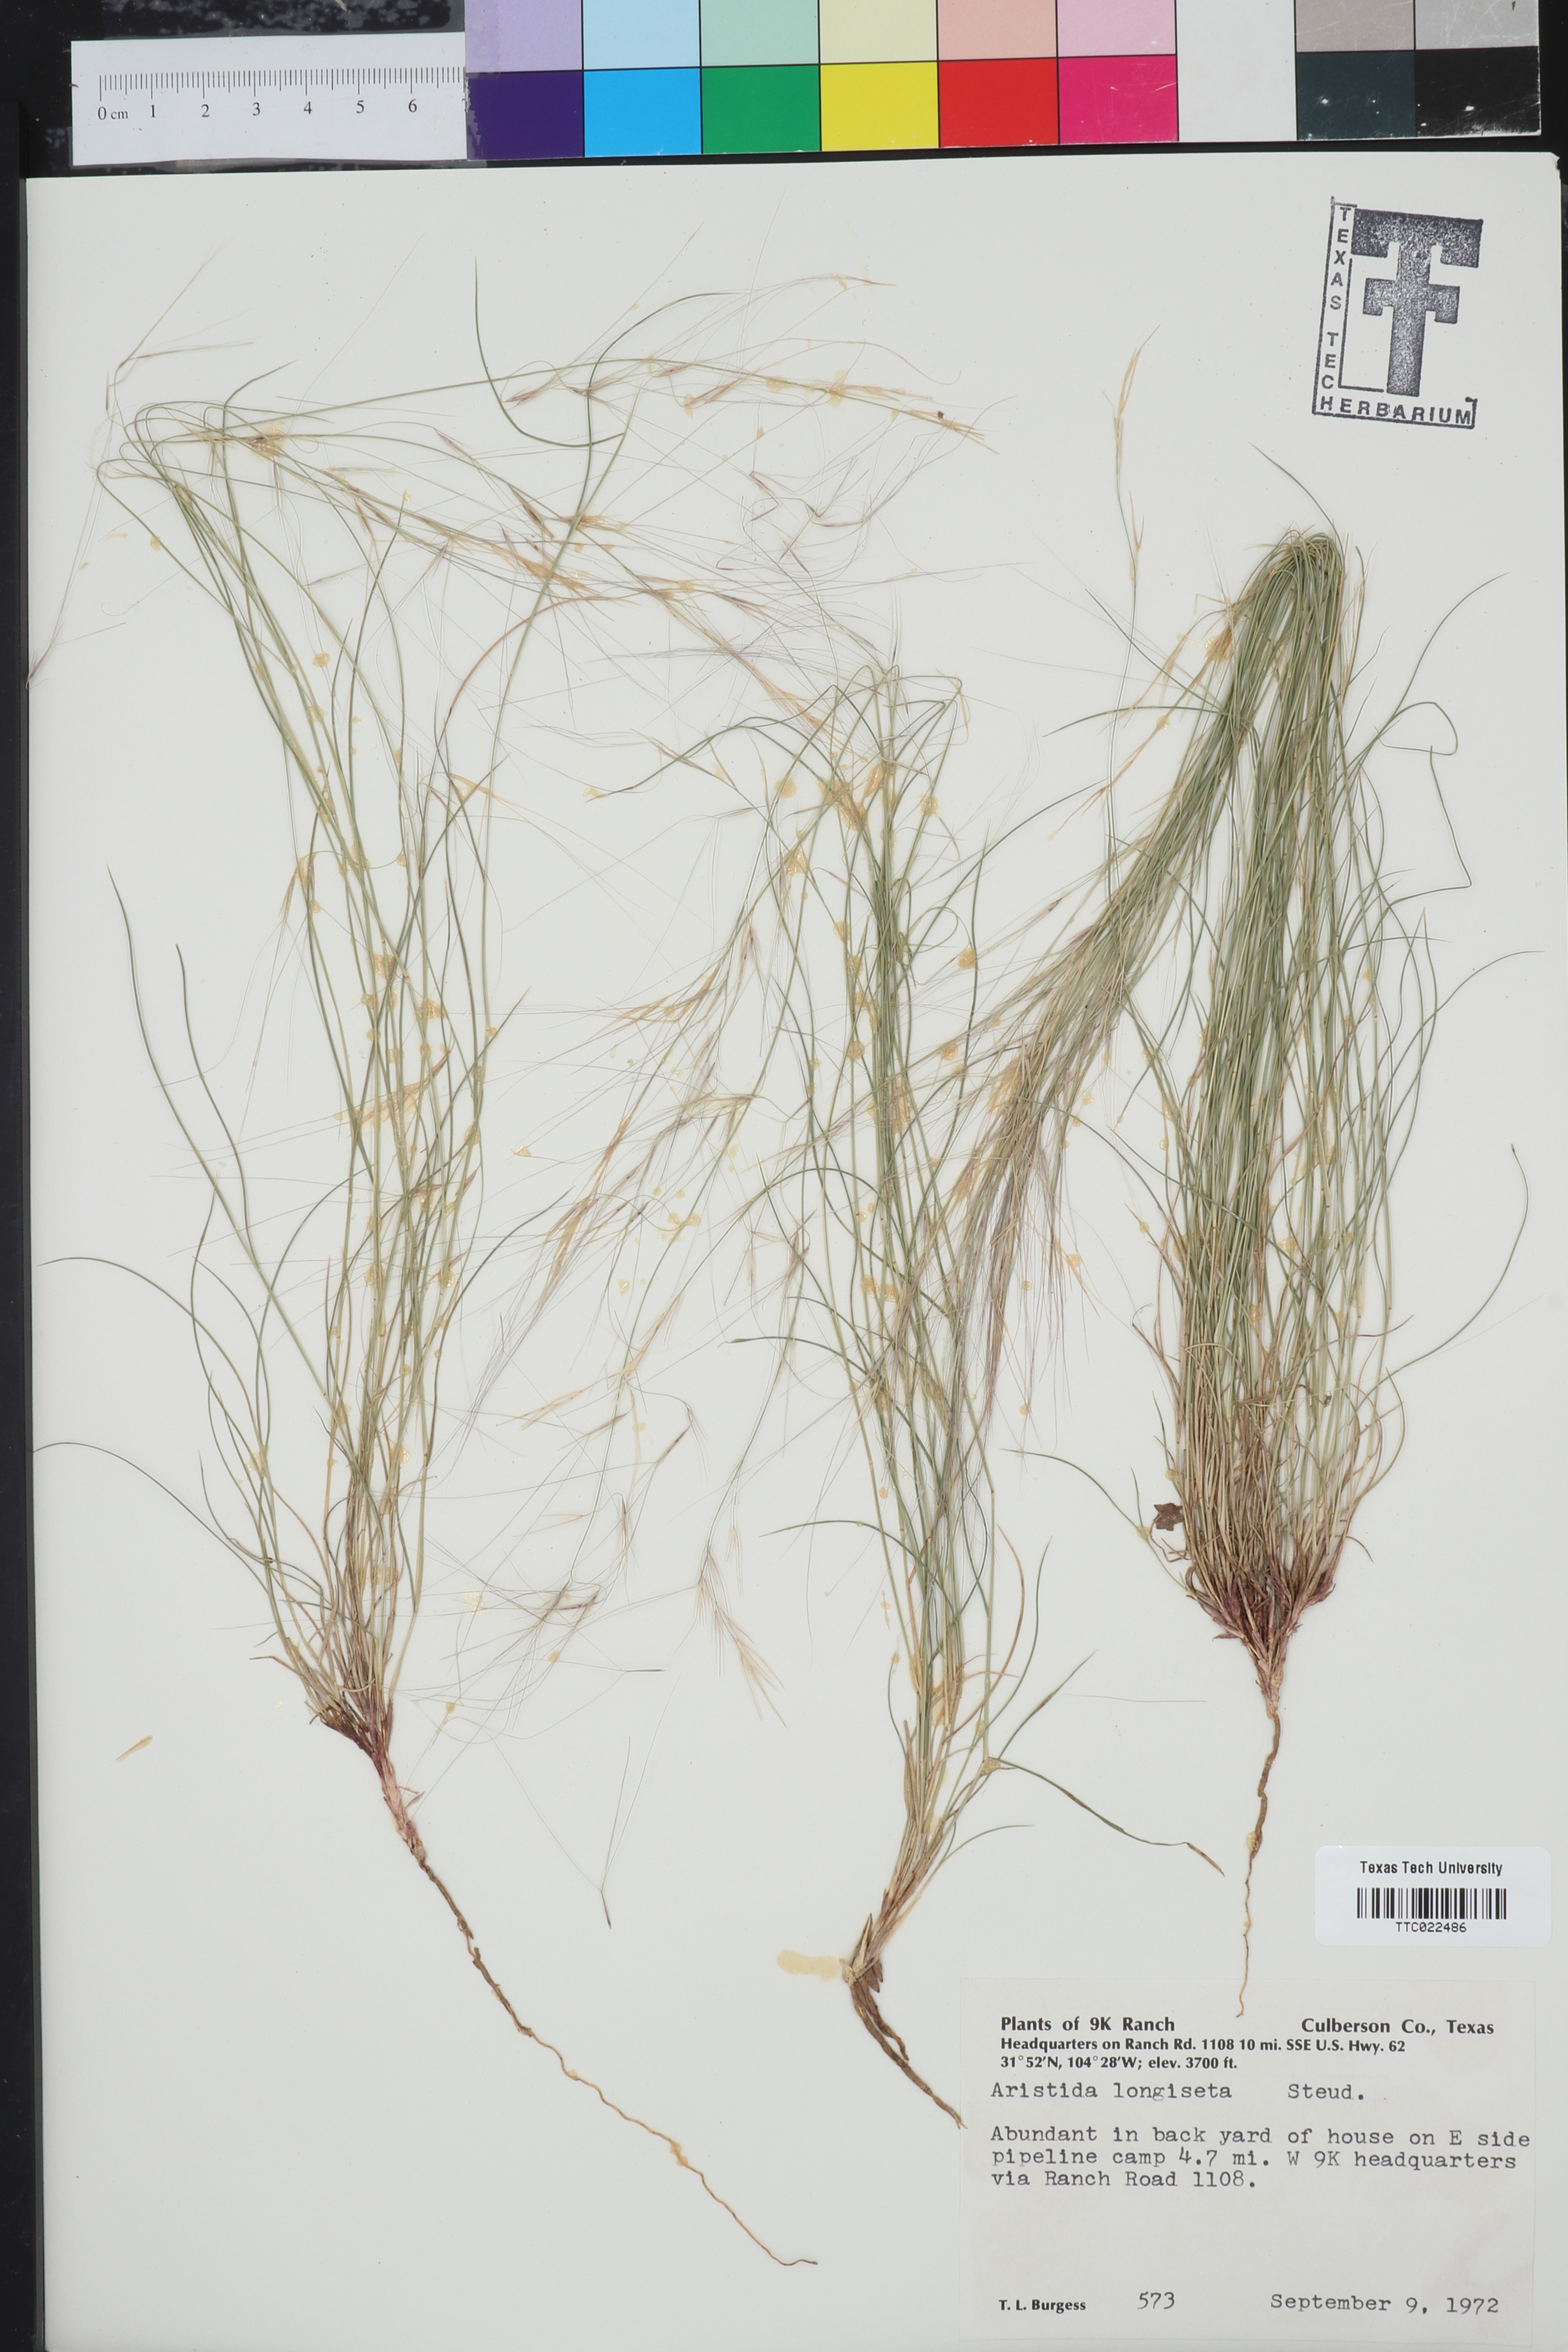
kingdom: Plantae
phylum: Tracheophyta
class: Liliopsida
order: Poales
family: Poaceae
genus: Aristida
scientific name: Aristida longiseta
